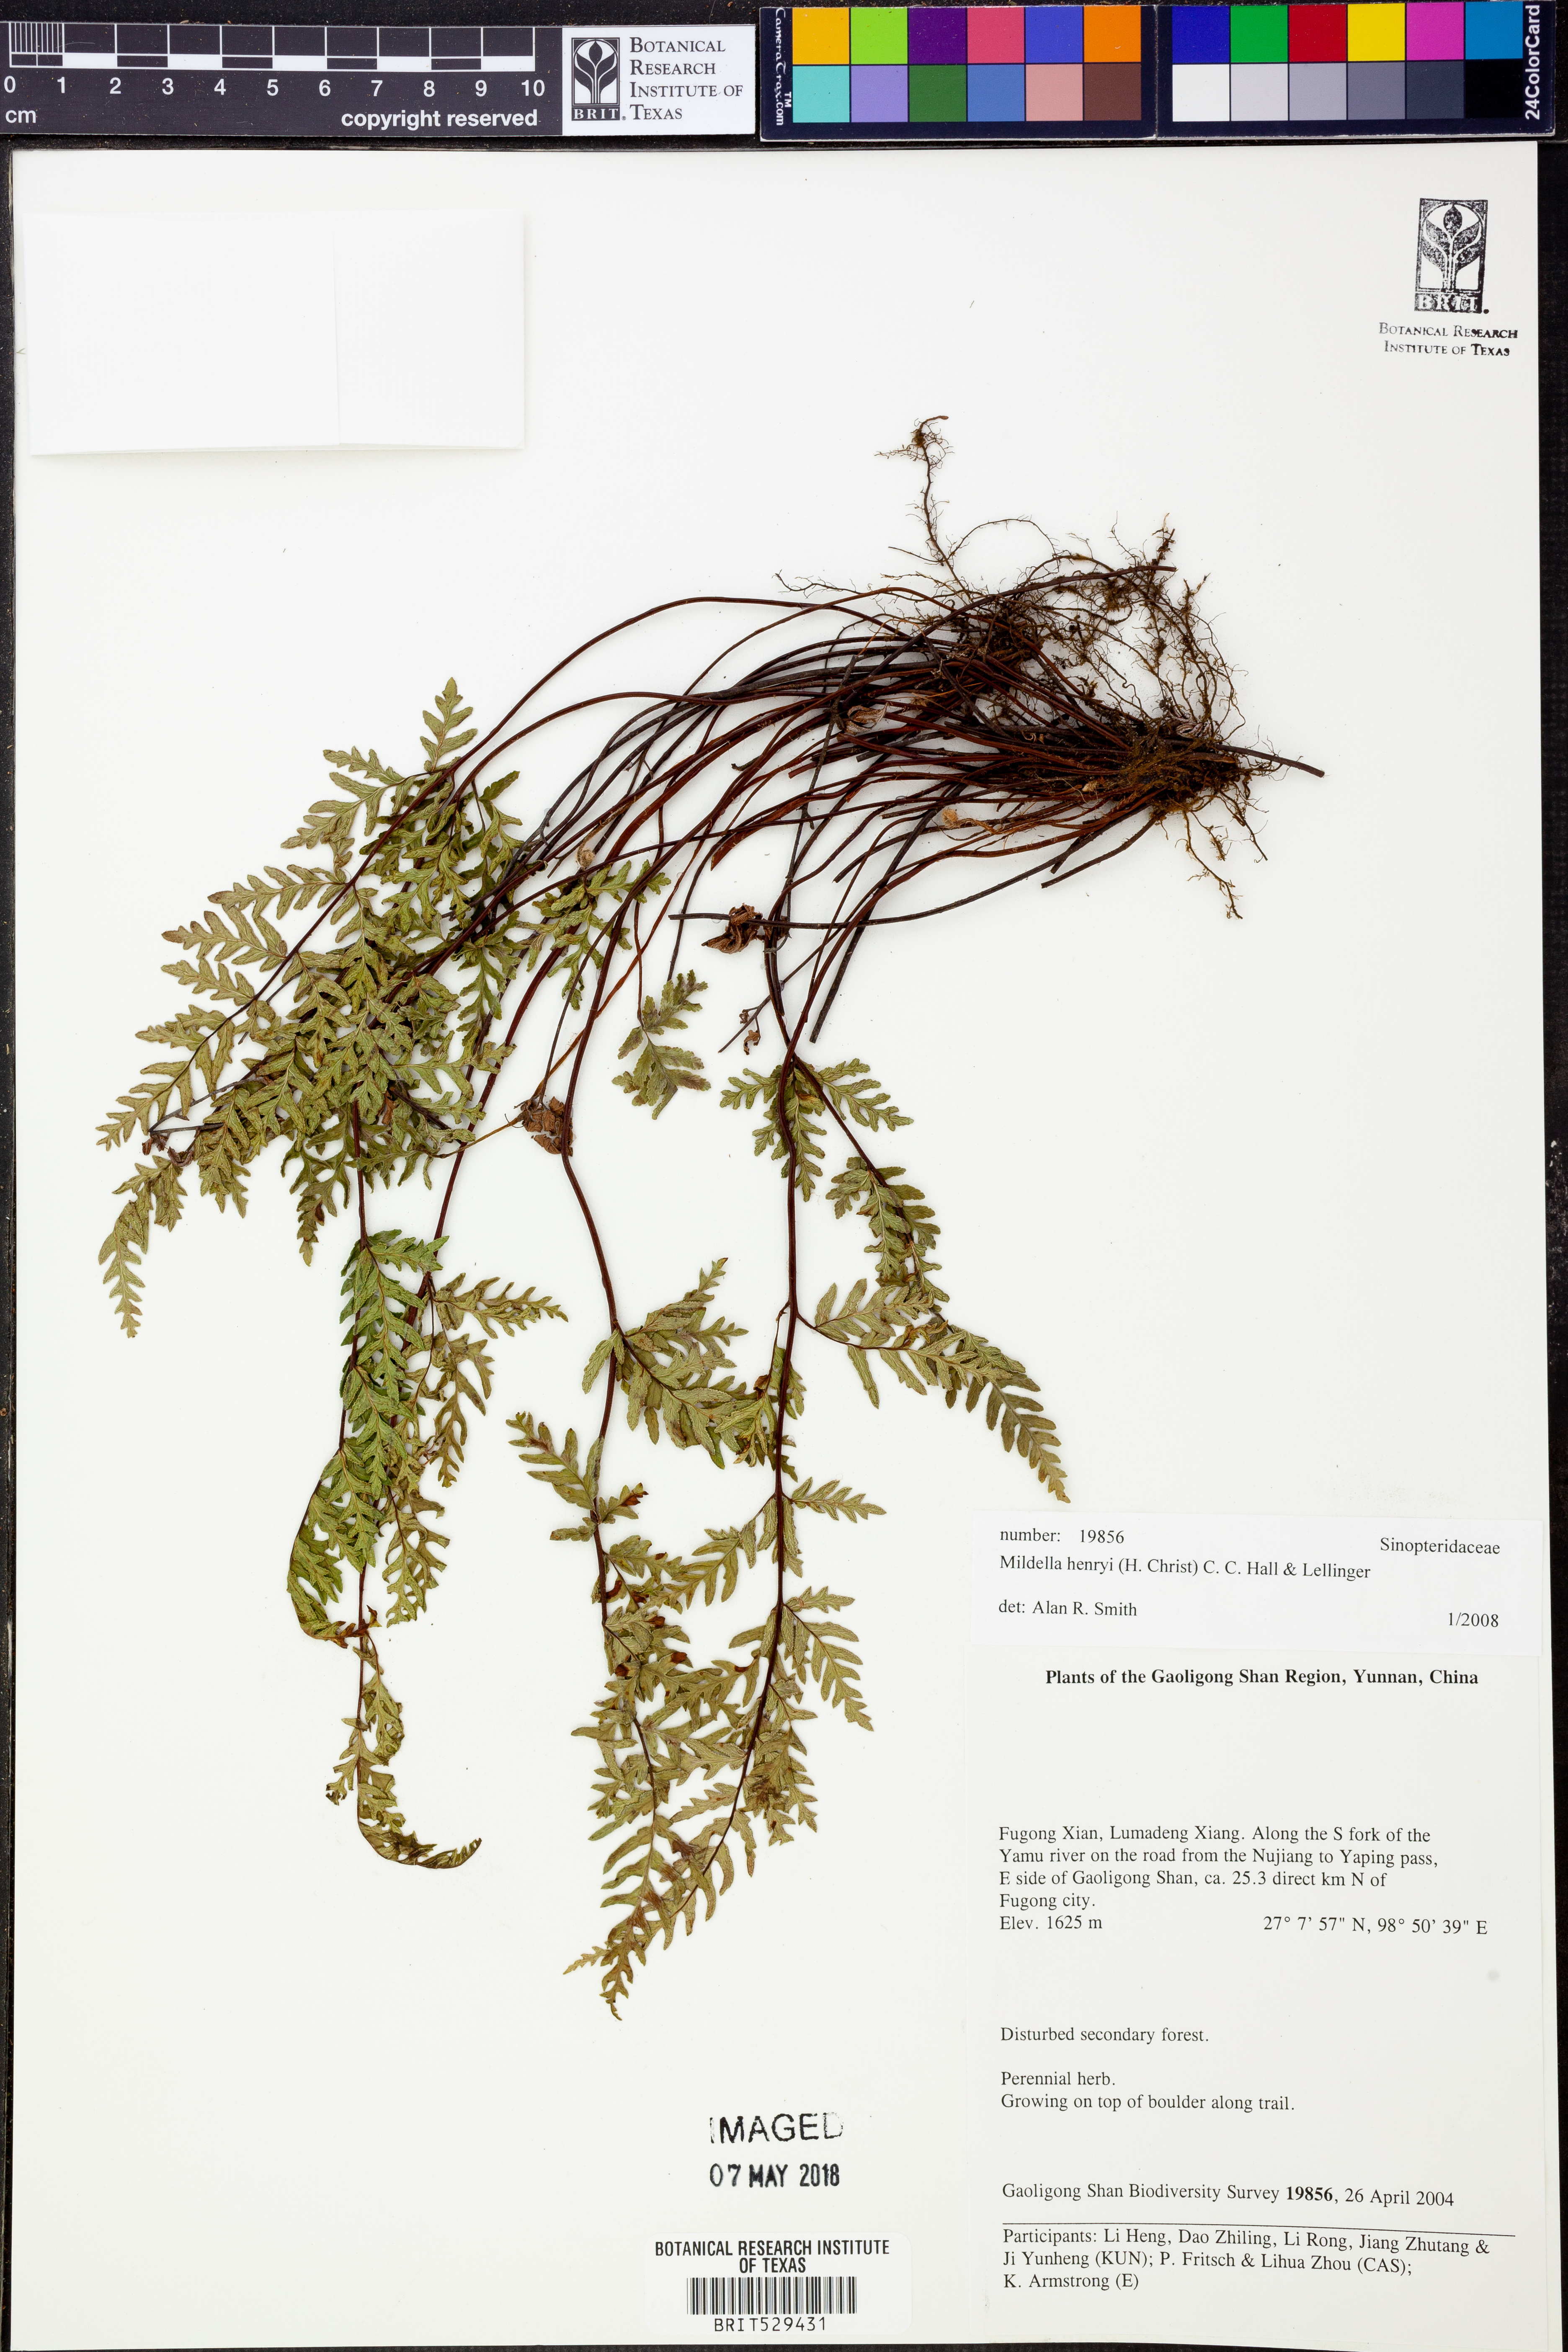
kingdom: Plantae
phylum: Tracheophyta
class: Polypodiopsida
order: Polypodiales
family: Pteridaceae
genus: Mildella
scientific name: Mildella nitidula
